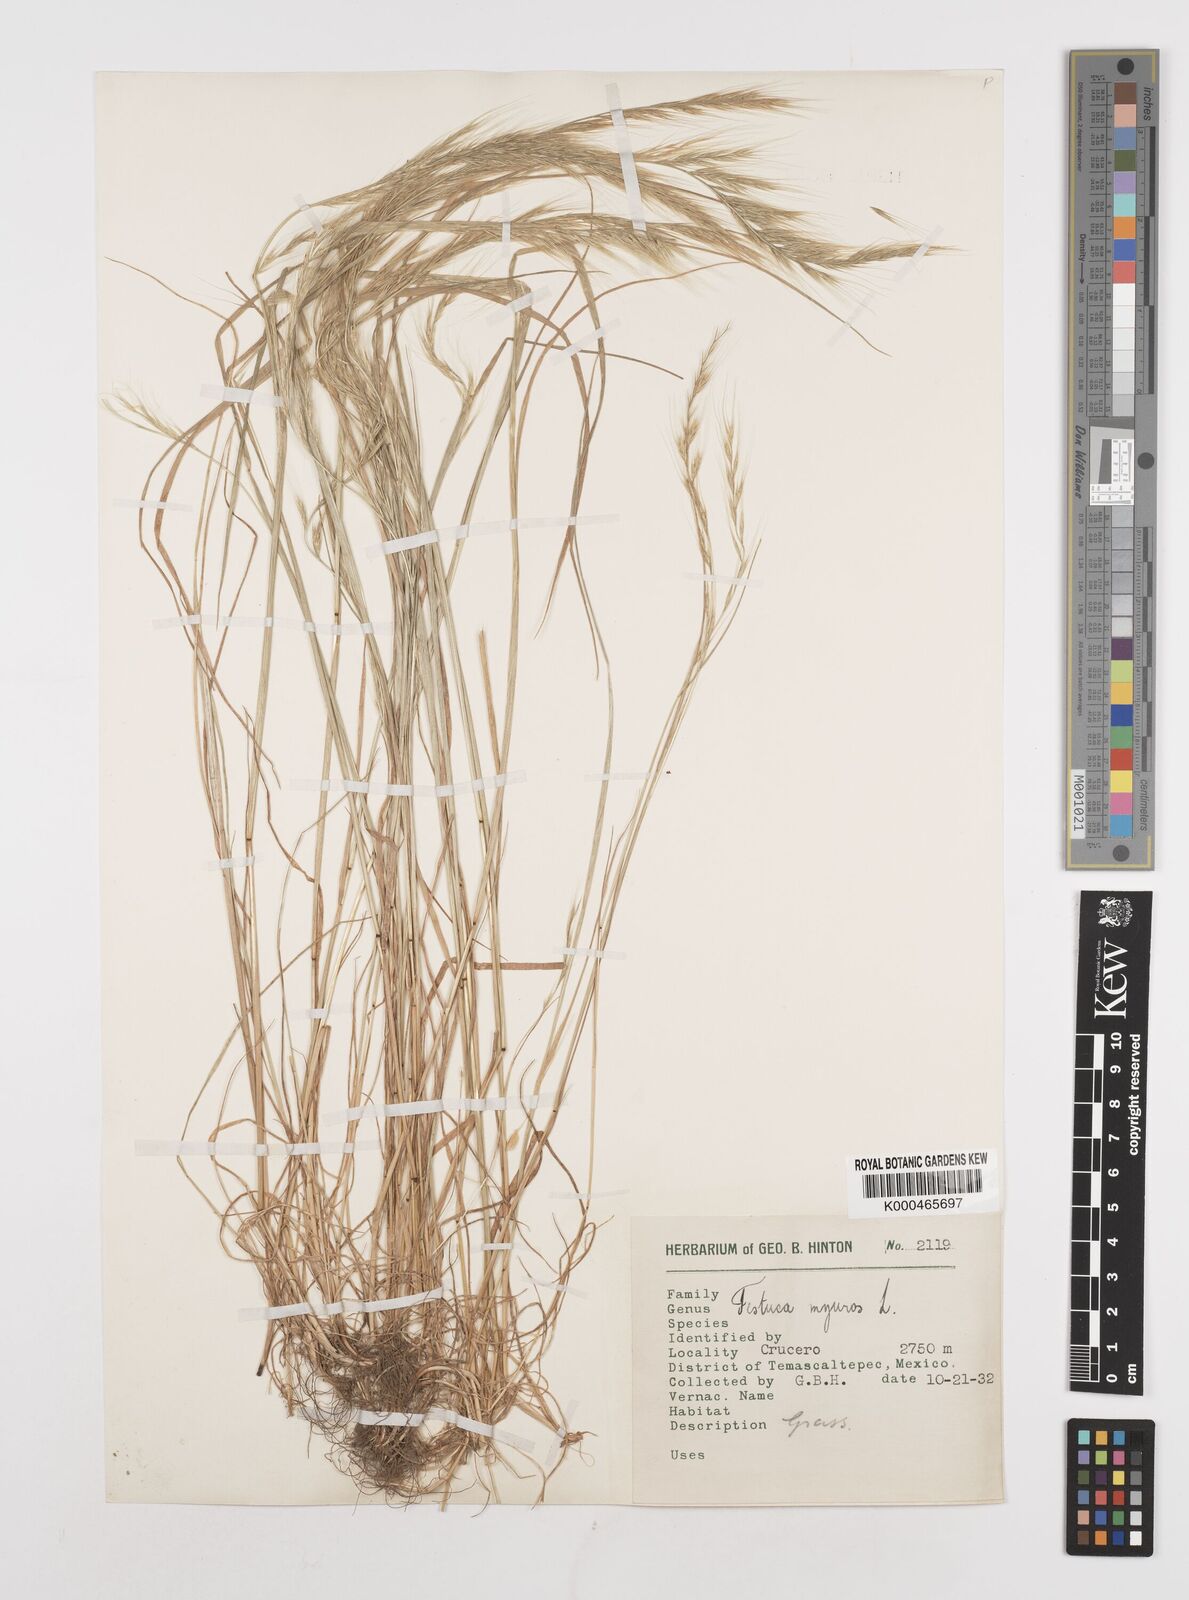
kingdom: Plantae
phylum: Tracheophyta
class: Liliopsida
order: Poales
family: Poaceae
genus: Festuca
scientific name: Festuca myuros
